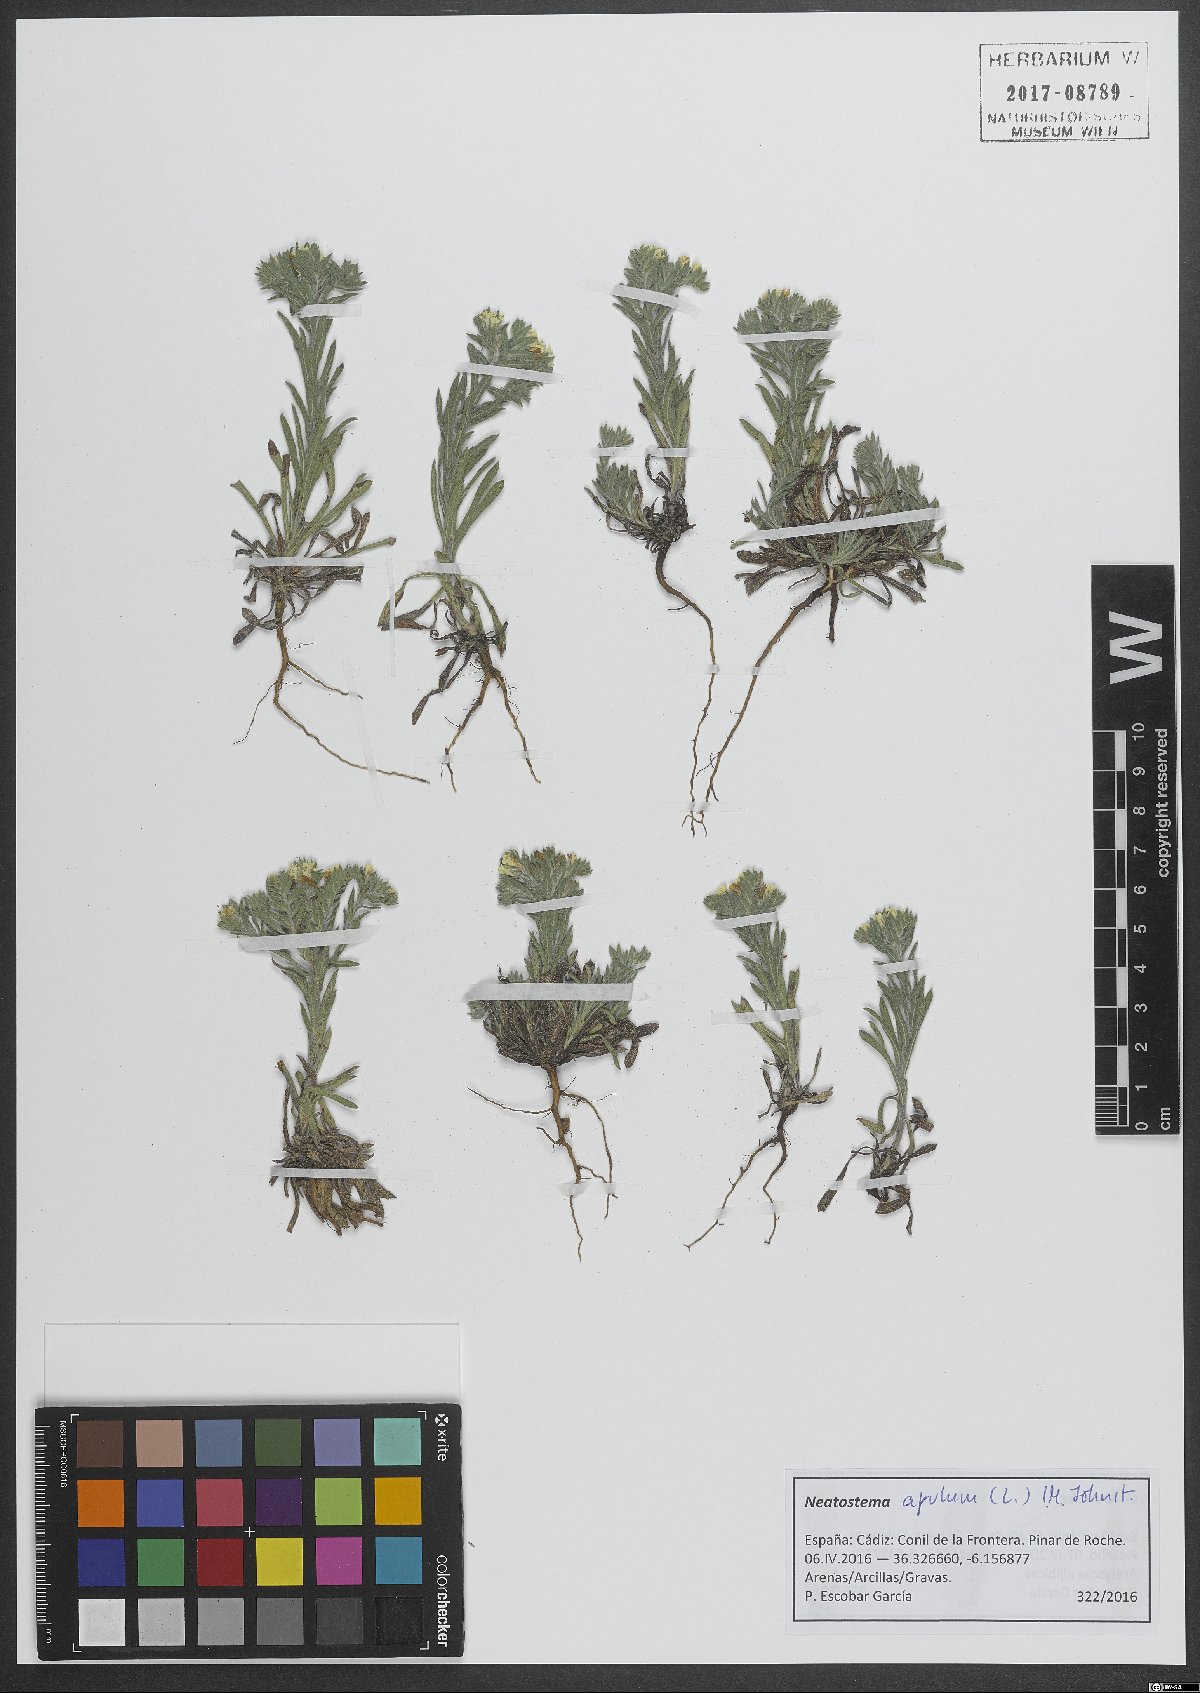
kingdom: Plantae
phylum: Tracheophyta
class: Magnoliopsida
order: Boraginales
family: Boraginaceae
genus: Neatostema
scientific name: Neatostema apulum
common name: Hairy sheepweed
